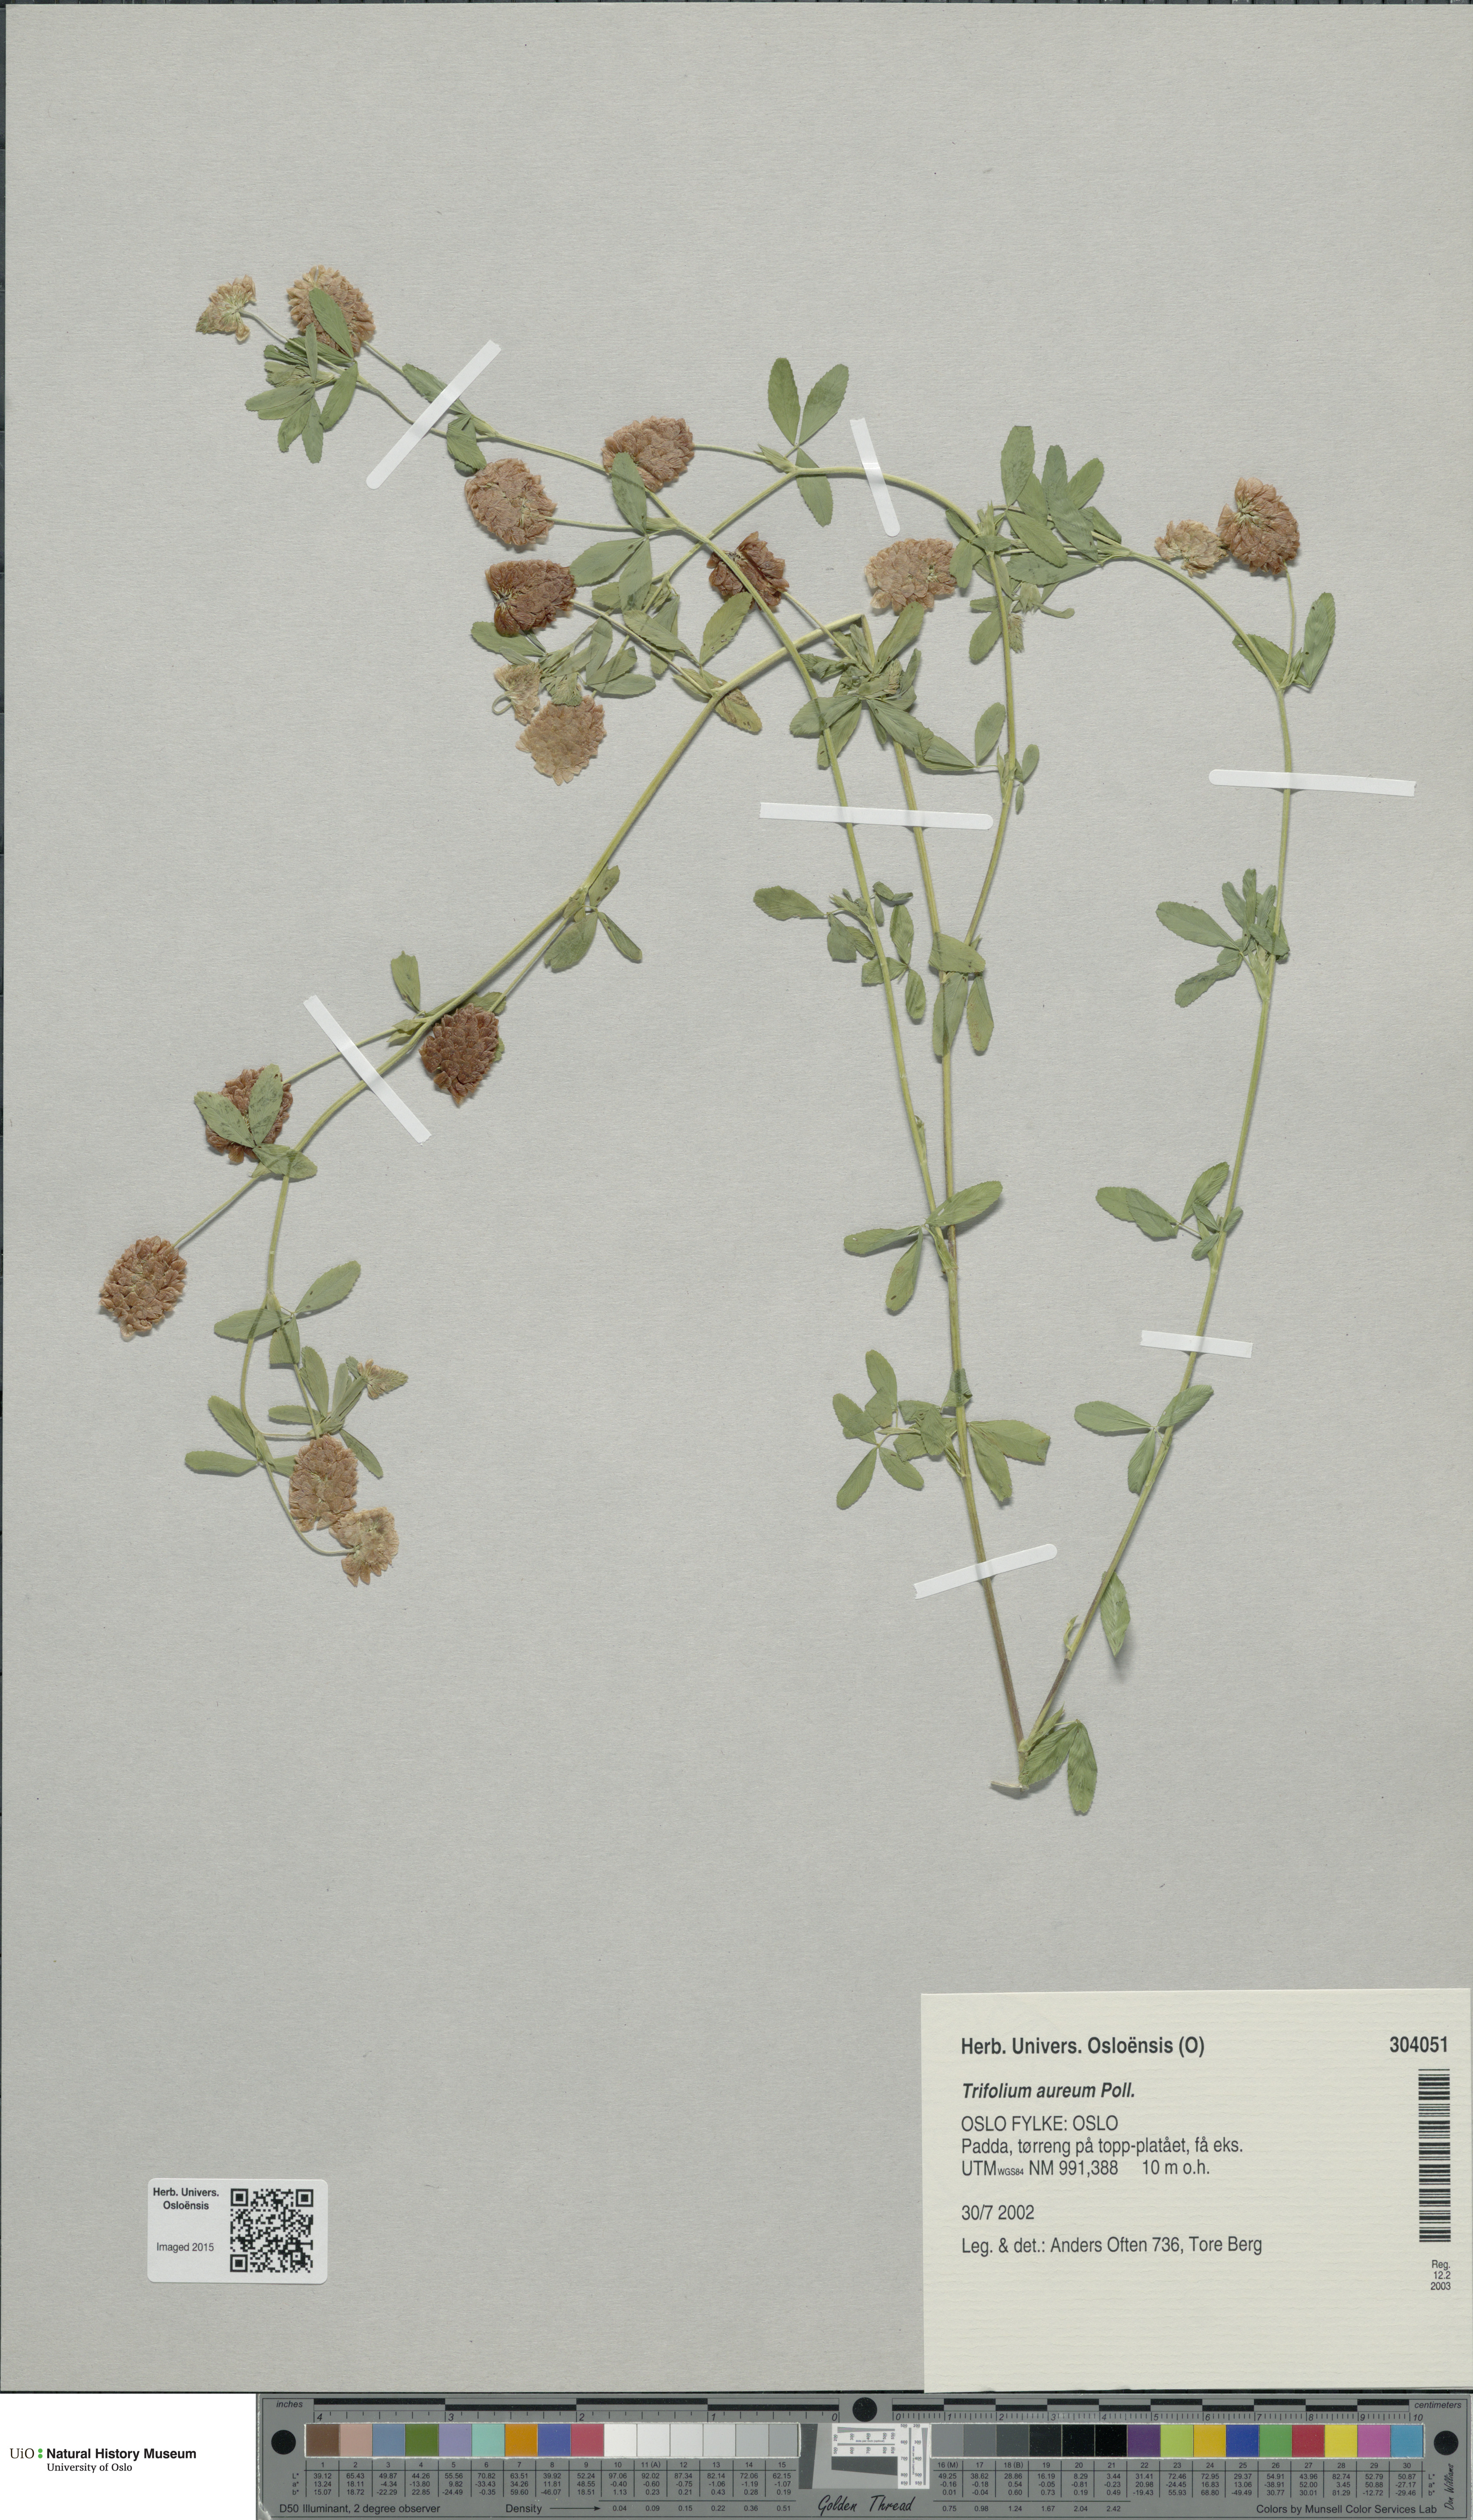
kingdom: Plantae
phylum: Tracheophyta
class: Magnoliopsida
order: Fabales
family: Fabaceae
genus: Trifolium
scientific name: Trifolium aureum
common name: Golden clover
